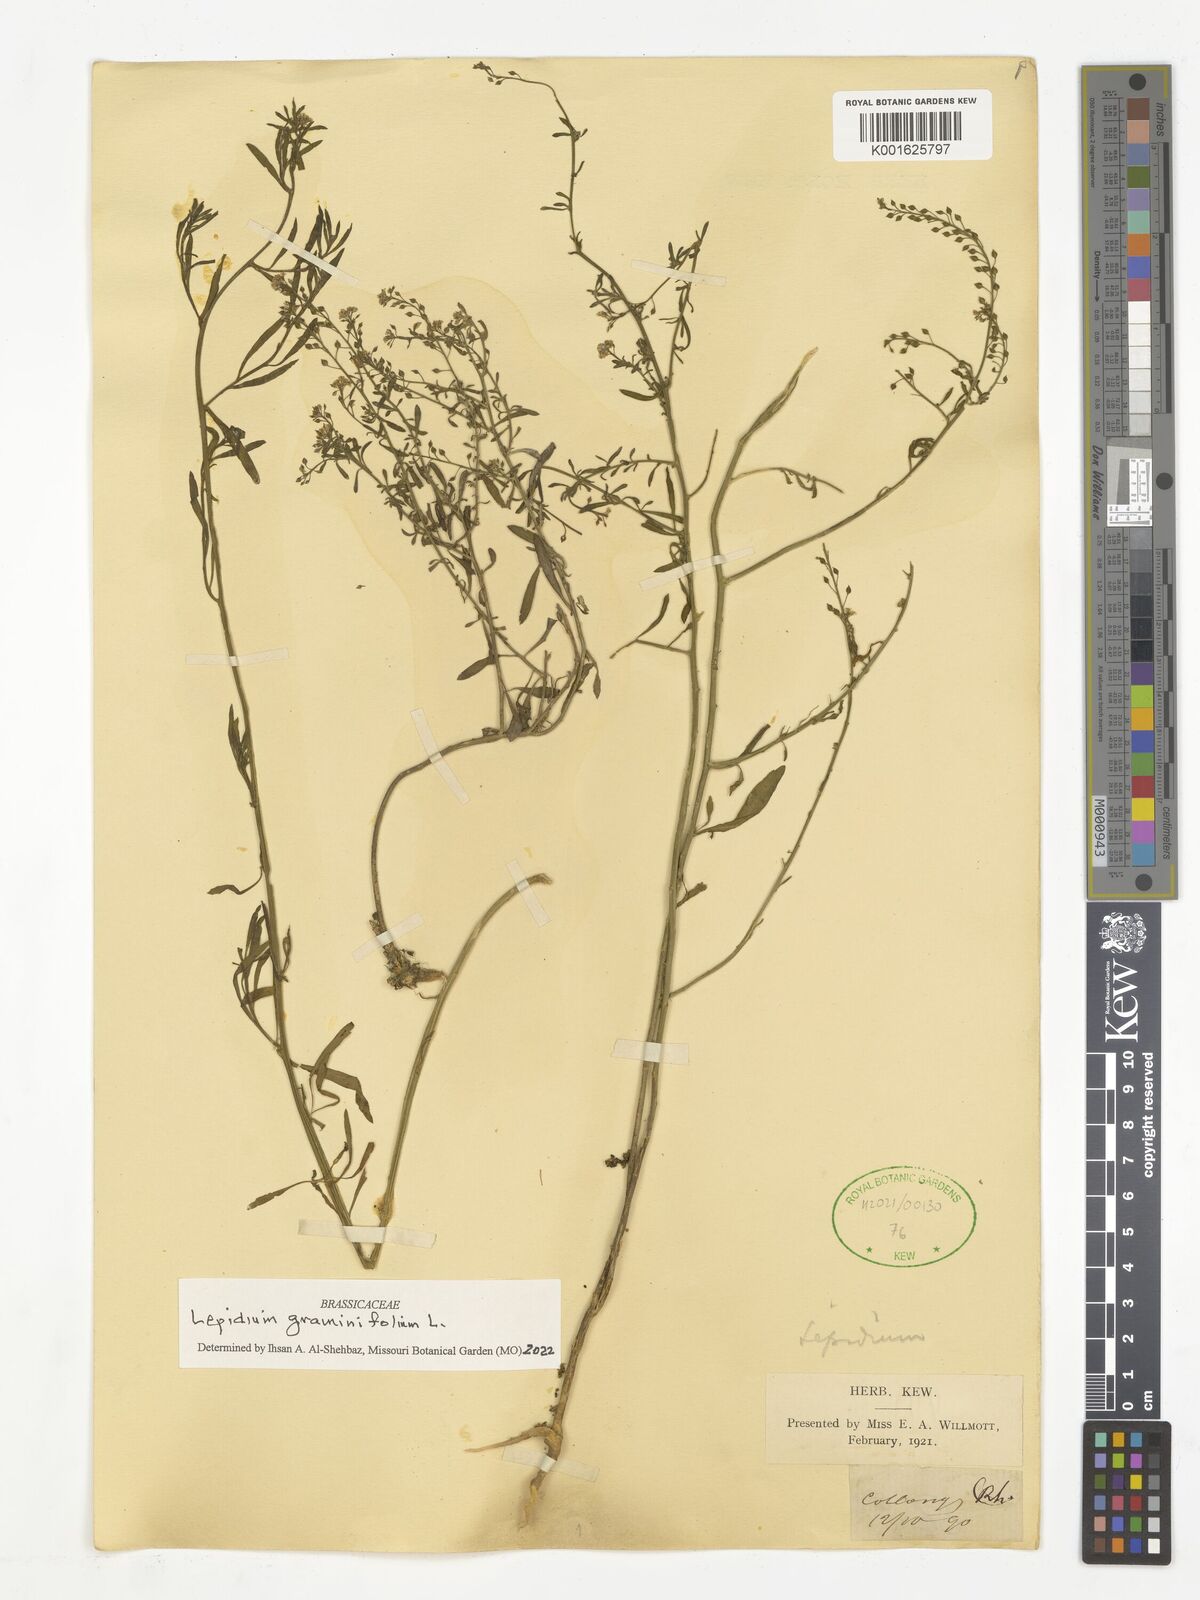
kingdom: Plantae
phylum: Tracheophyta
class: Magnoliopsida
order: Brassicales
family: Brassicaceae
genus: Lepidium
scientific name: Lepidium graminifolium
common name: Tall pepperwort
